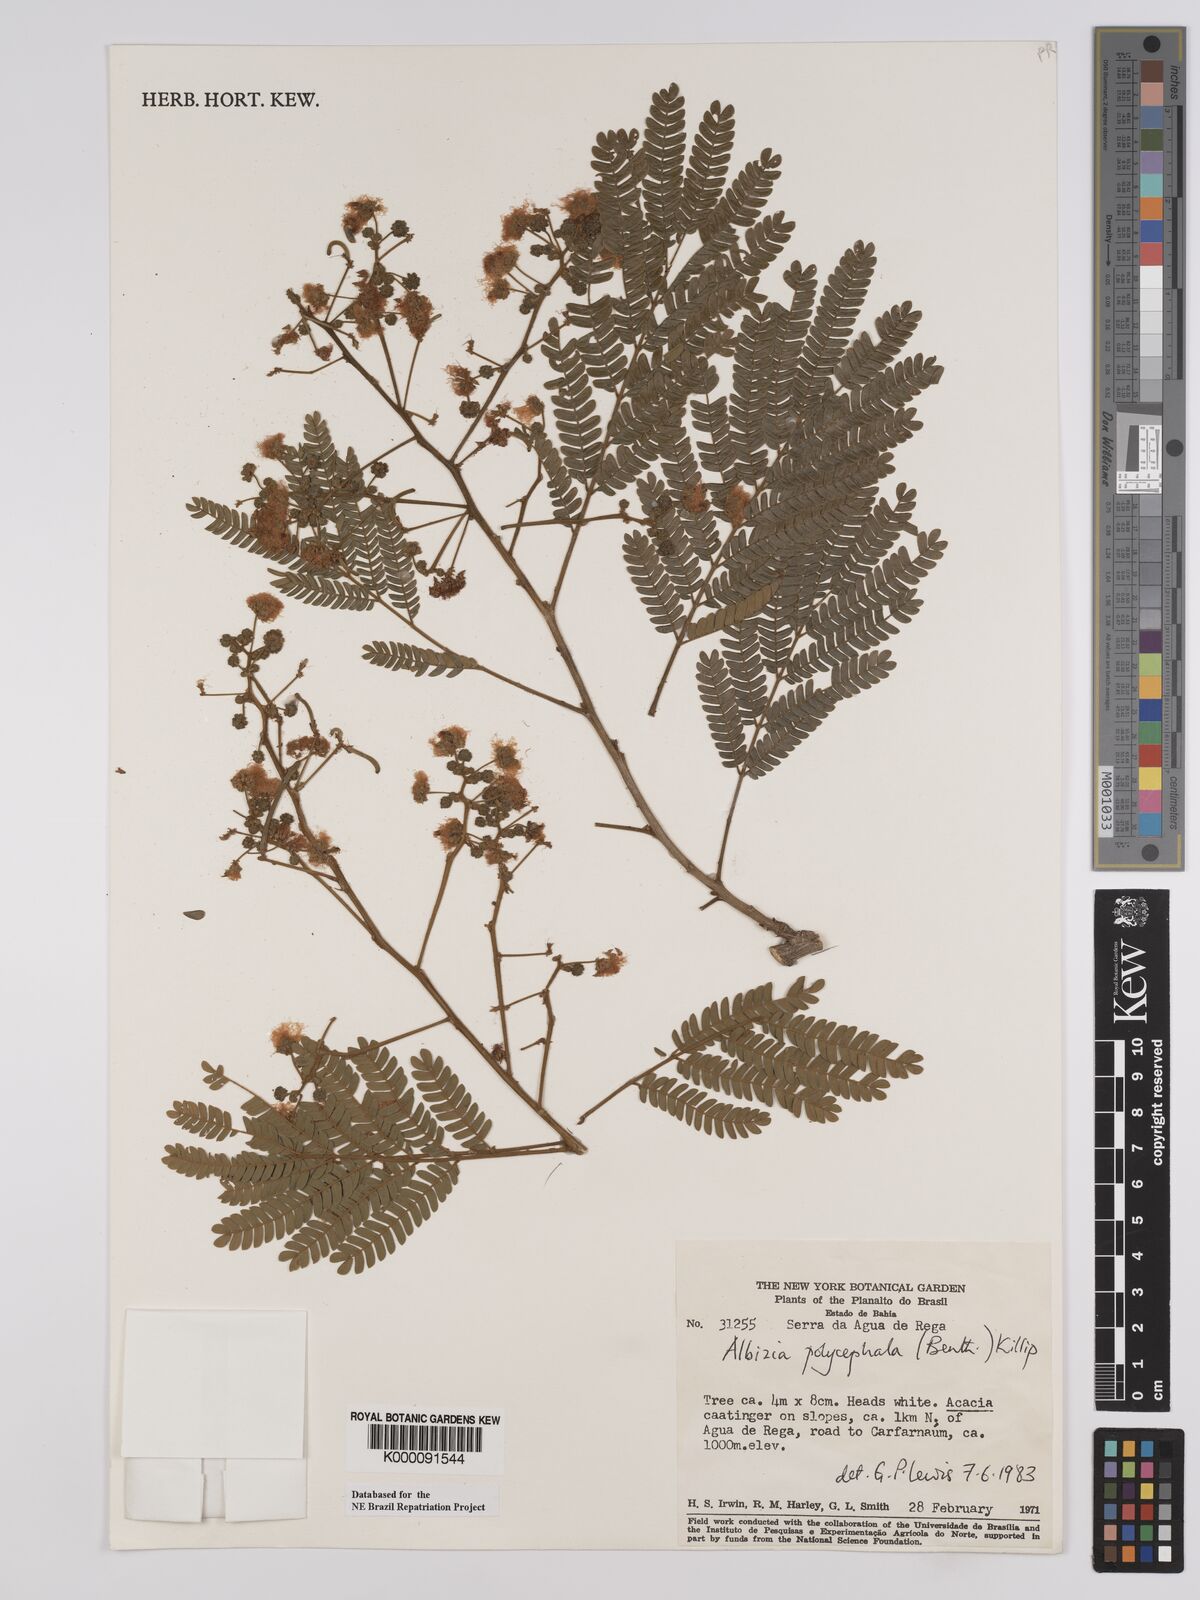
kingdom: Plantae
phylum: Tracheophyta
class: Magnoliopsida
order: Fabales
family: Fabaceae
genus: Albizia
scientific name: Albizia polycephala
